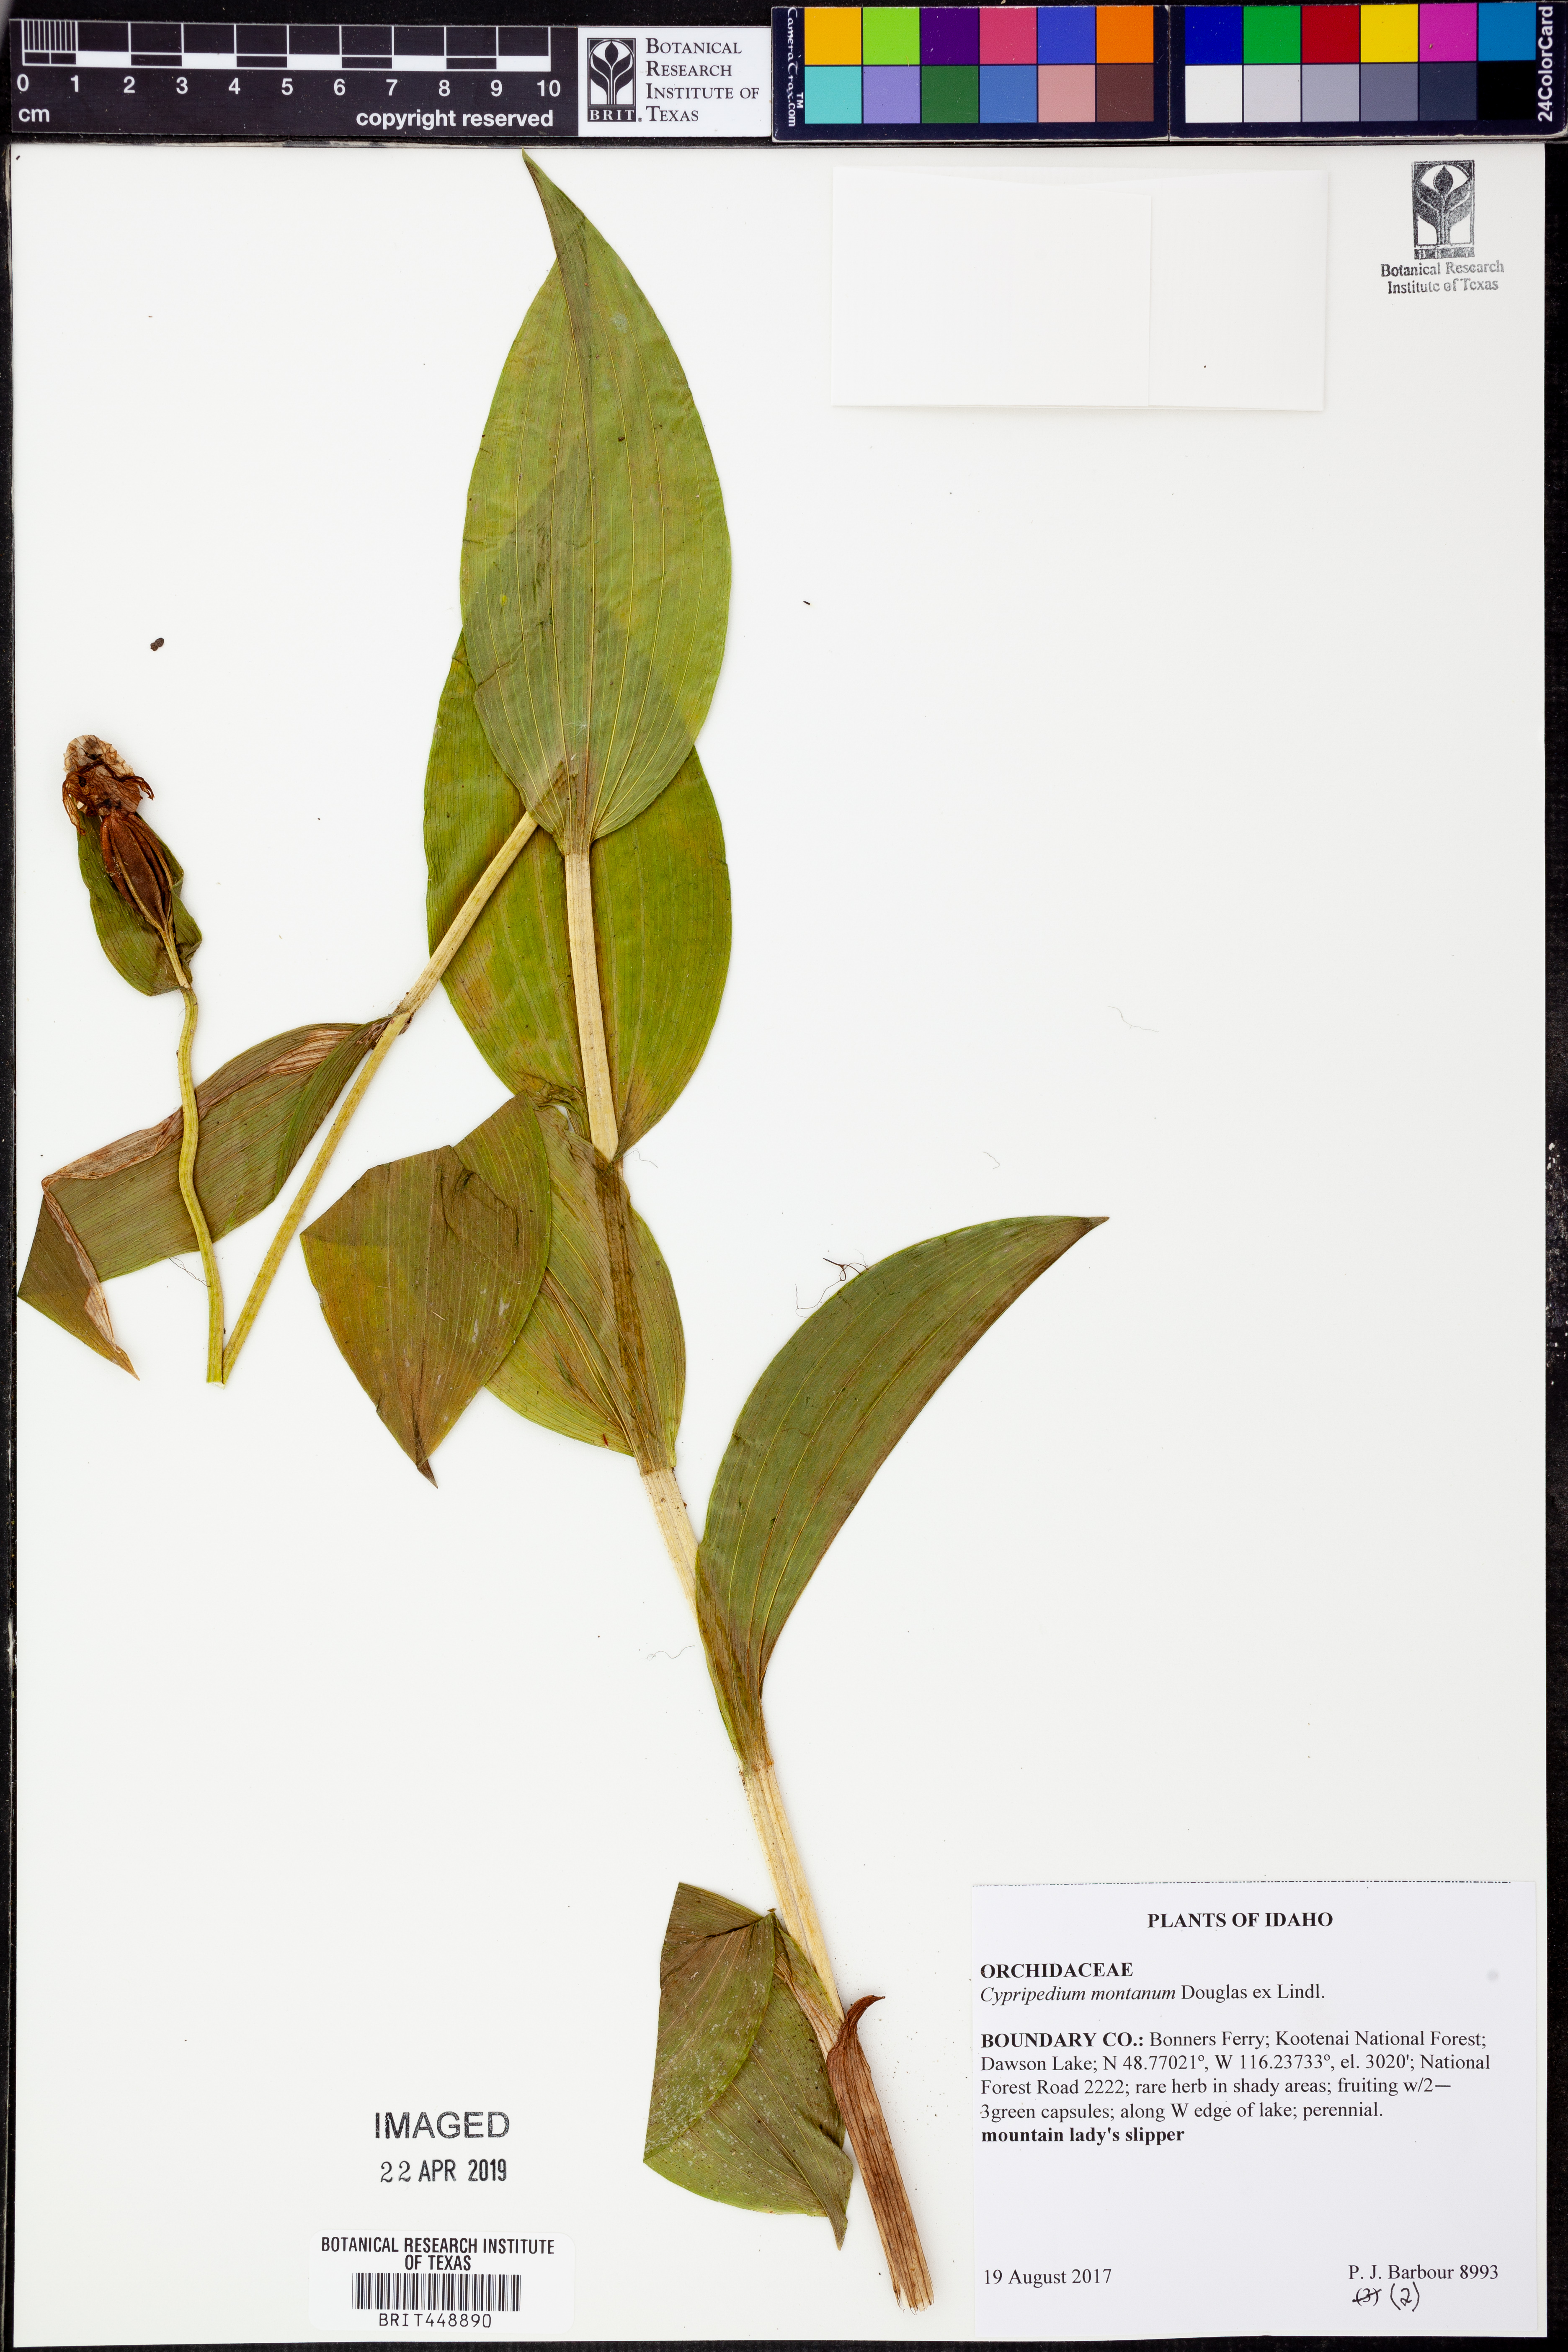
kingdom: Plantae
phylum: Tracheophyta
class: Liliopsida
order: Asparagales
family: Orchidaceae
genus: Cypripedium
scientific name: Cypripedium montanum
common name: Mountain lady's-slipper
